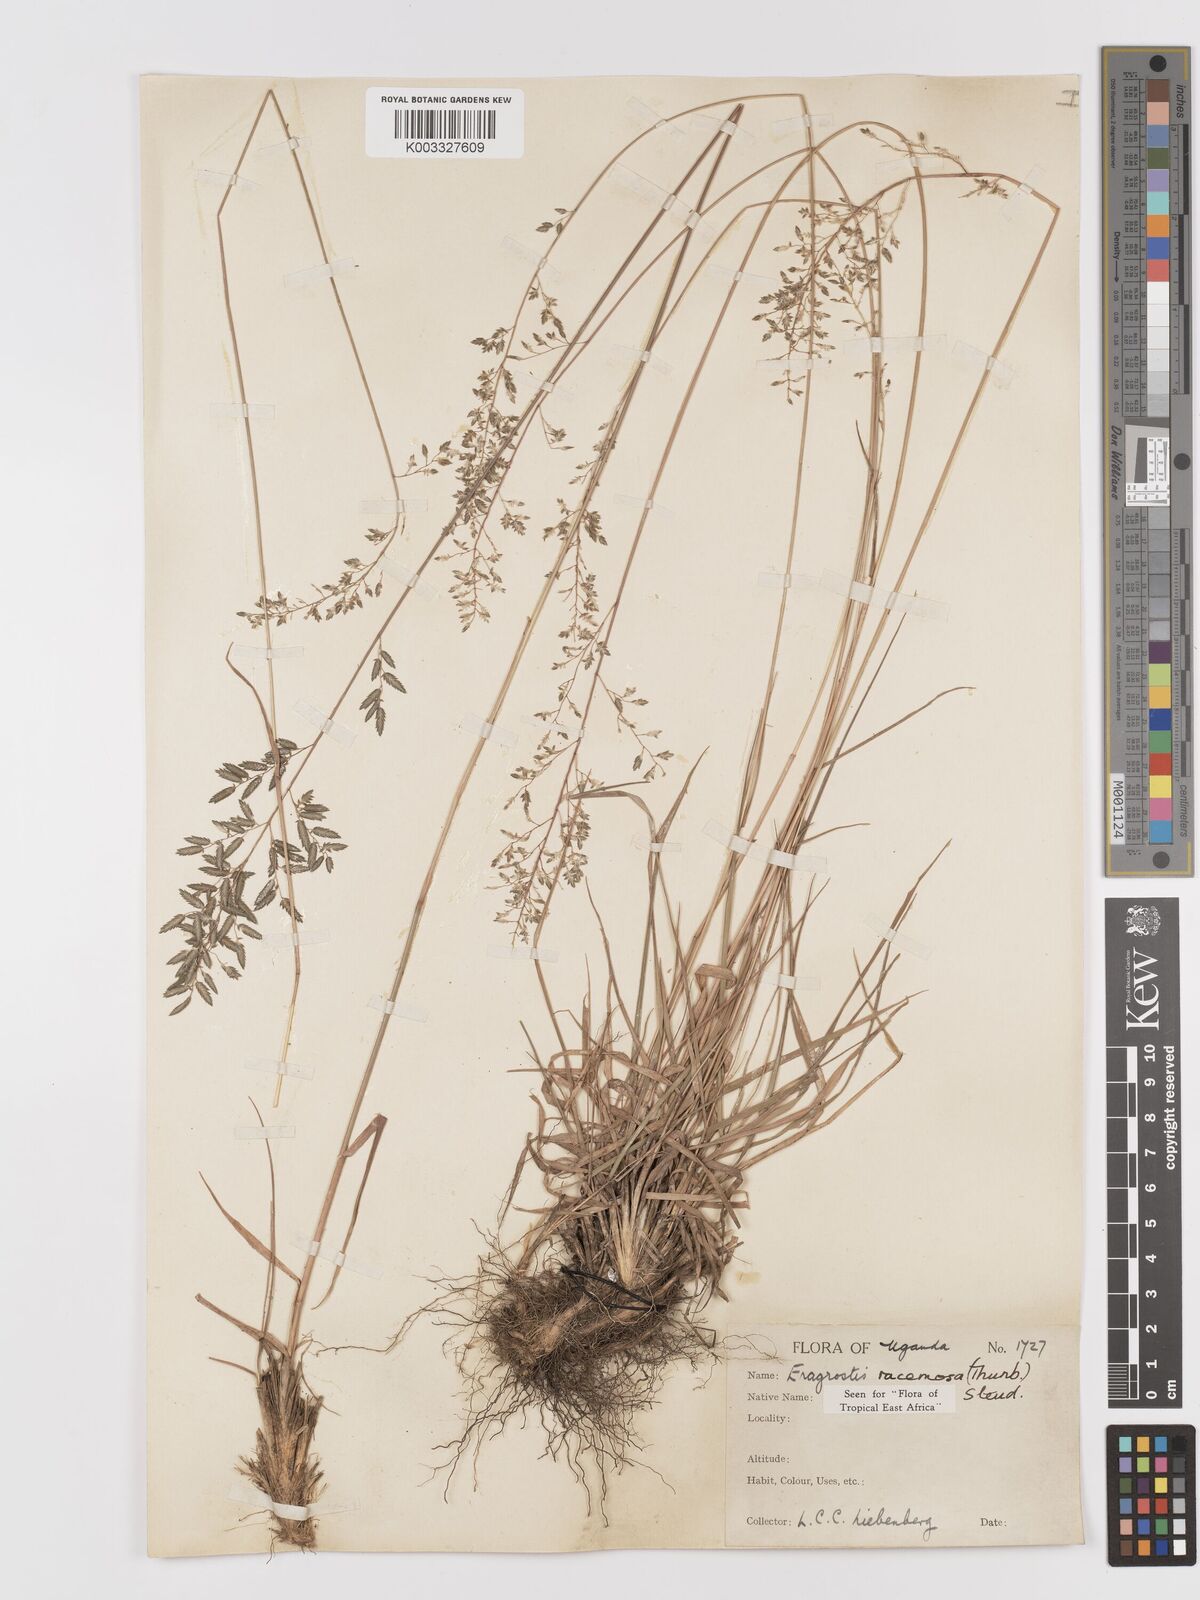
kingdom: Plantae
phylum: Tracheophyta
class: Liliopsida
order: Poales
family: Poaceae
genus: Eragrostis
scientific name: Eragrostis racemosa
